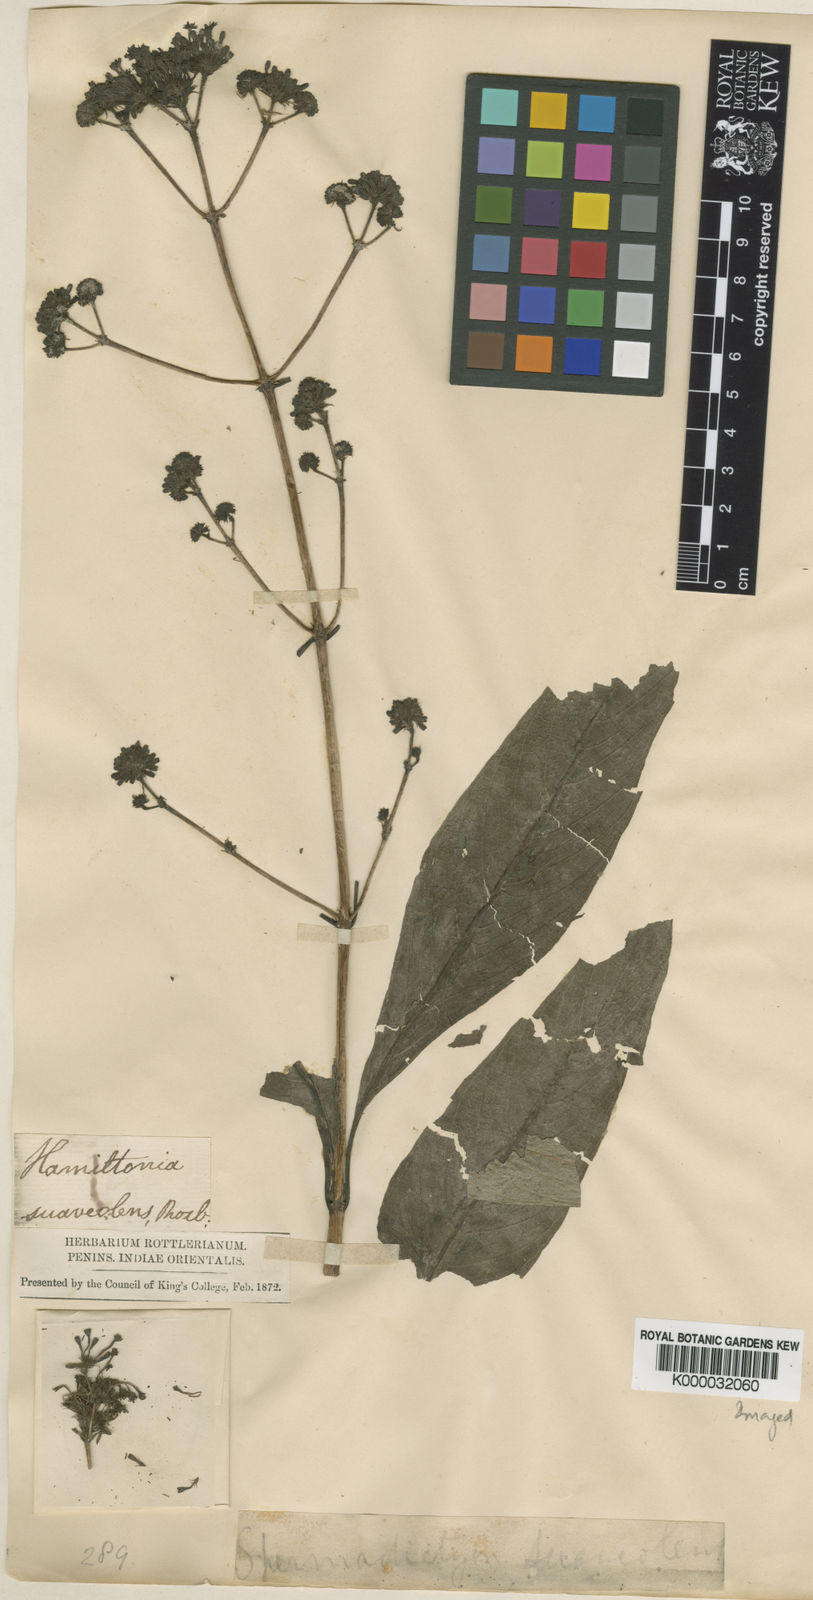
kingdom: Plantae
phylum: Tracheophyta
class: Magnoliopsida
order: Gentianales
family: Rubiaceae
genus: Spermadictyon
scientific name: Spermadictyon suaveolens
